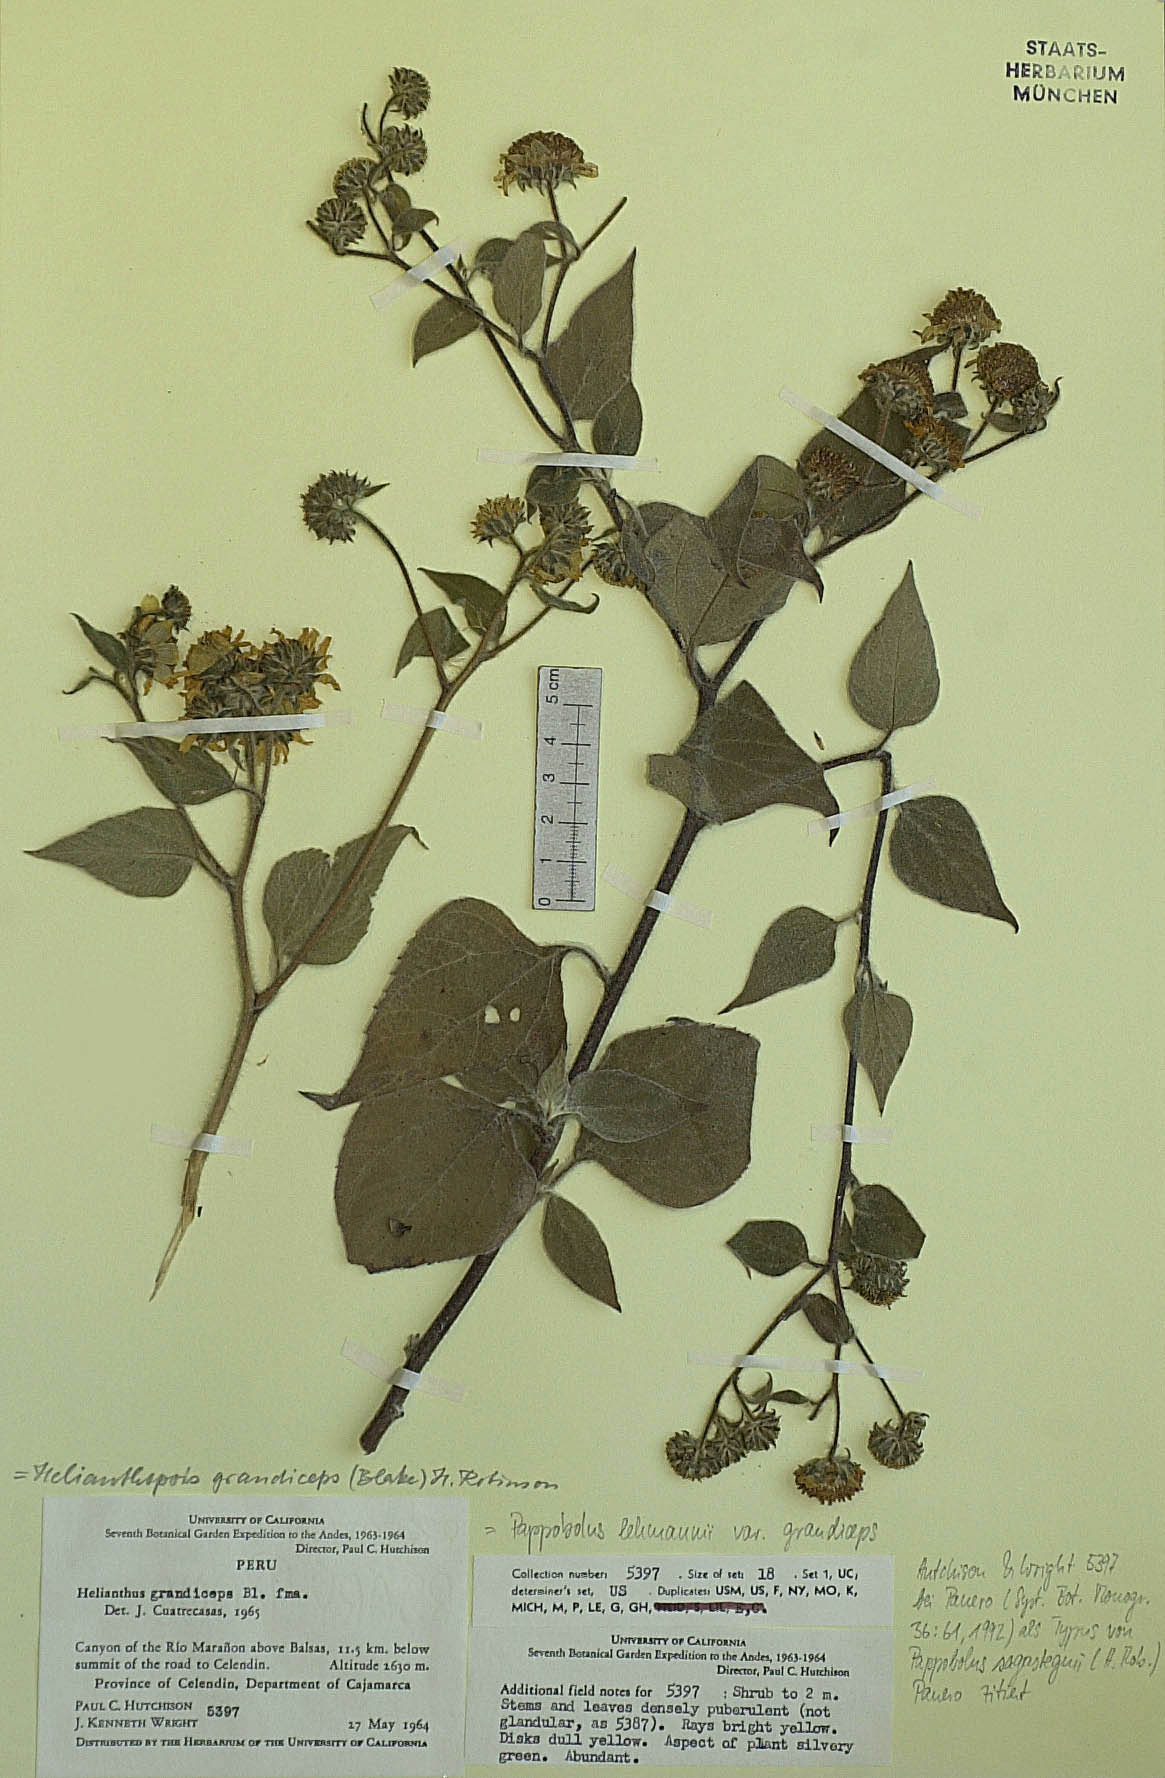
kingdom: Plantae
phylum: Tracheophyta
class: Magnoliopsida
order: Asterales
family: Asteraceae
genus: Pappobolus
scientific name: Pappobolus sagasteguii
